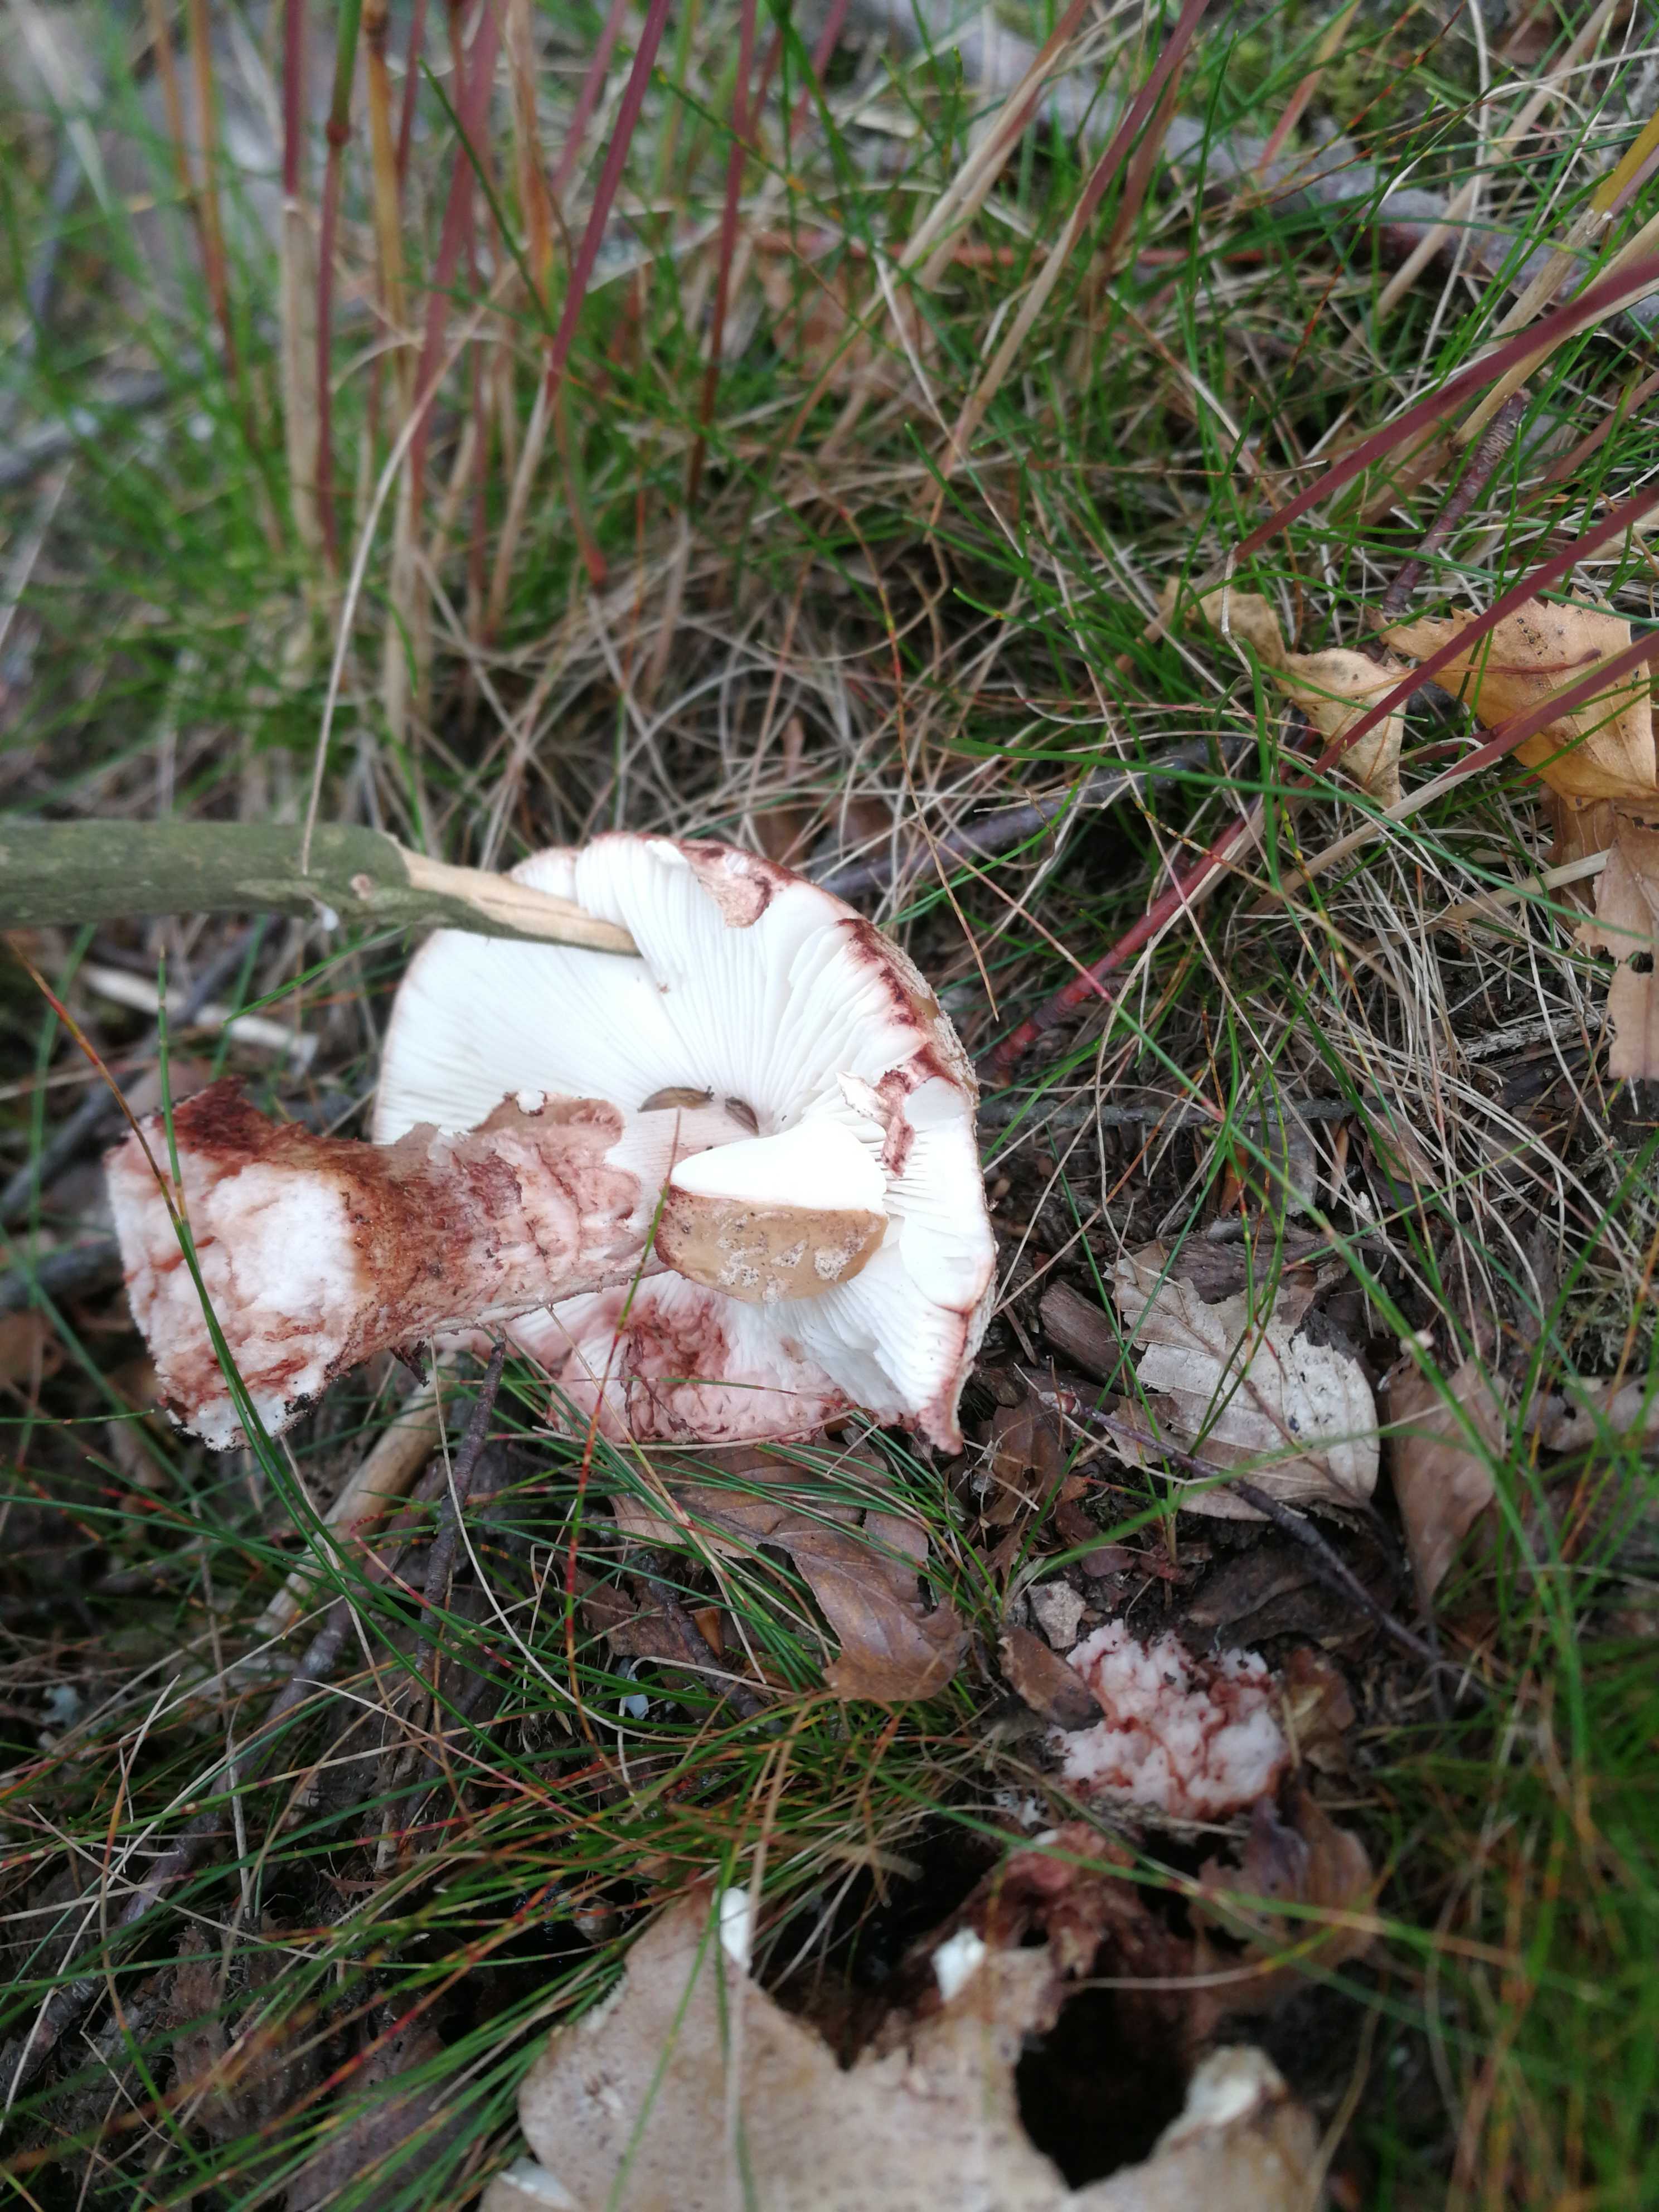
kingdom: Fungi
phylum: Basidiomycota
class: Agaricomycetes
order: Agaricales
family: Amanitaceae
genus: Amanita
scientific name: Amanita rubescens
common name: rødmende fluesvamp
